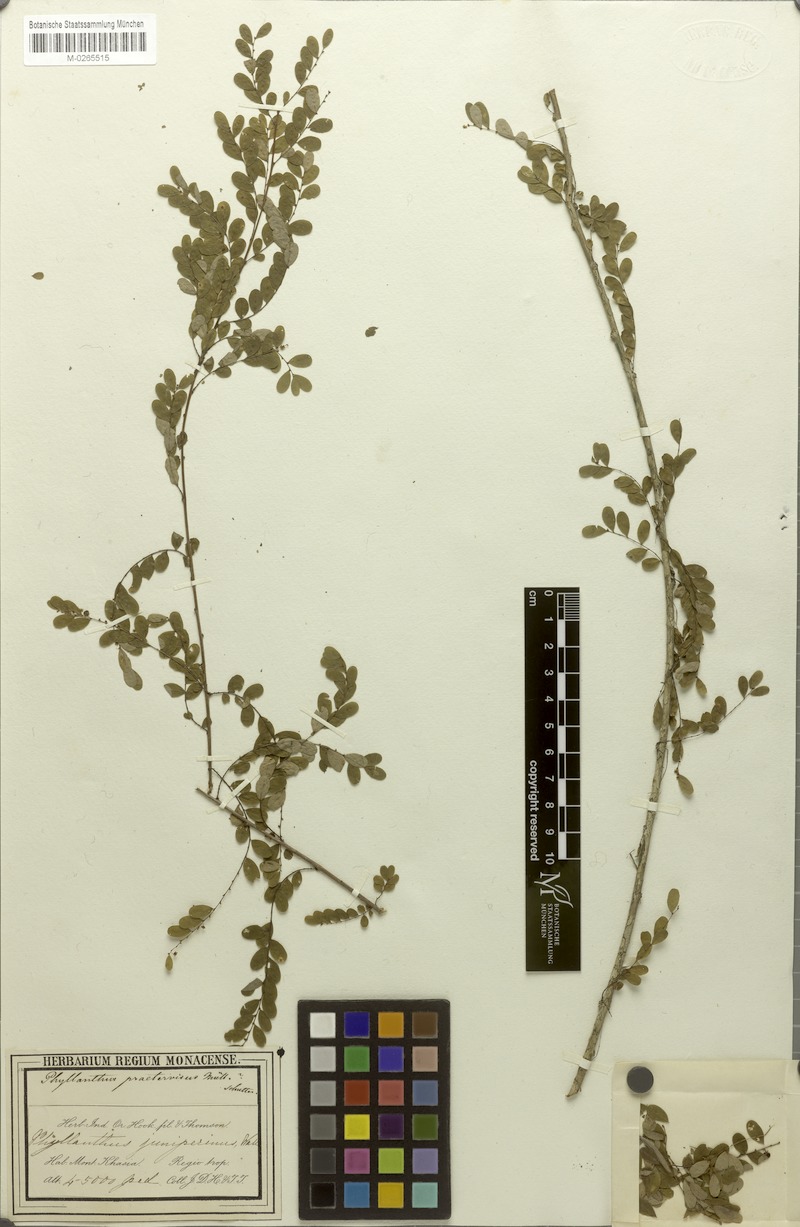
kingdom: Plantae
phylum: Tracheophyta
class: Magnoliopsida
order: Malpighiales
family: Phyllanthaceae
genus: Phyllanthus
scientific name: Phyllanthus praetervisus
